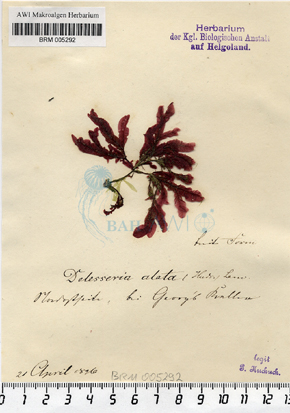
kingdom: Plantae
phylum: Rhodophyta
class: Florideophyceae
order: Ceramiales
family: Delesseriaceae
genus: Membranoptera
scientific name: Membranoptera alata
